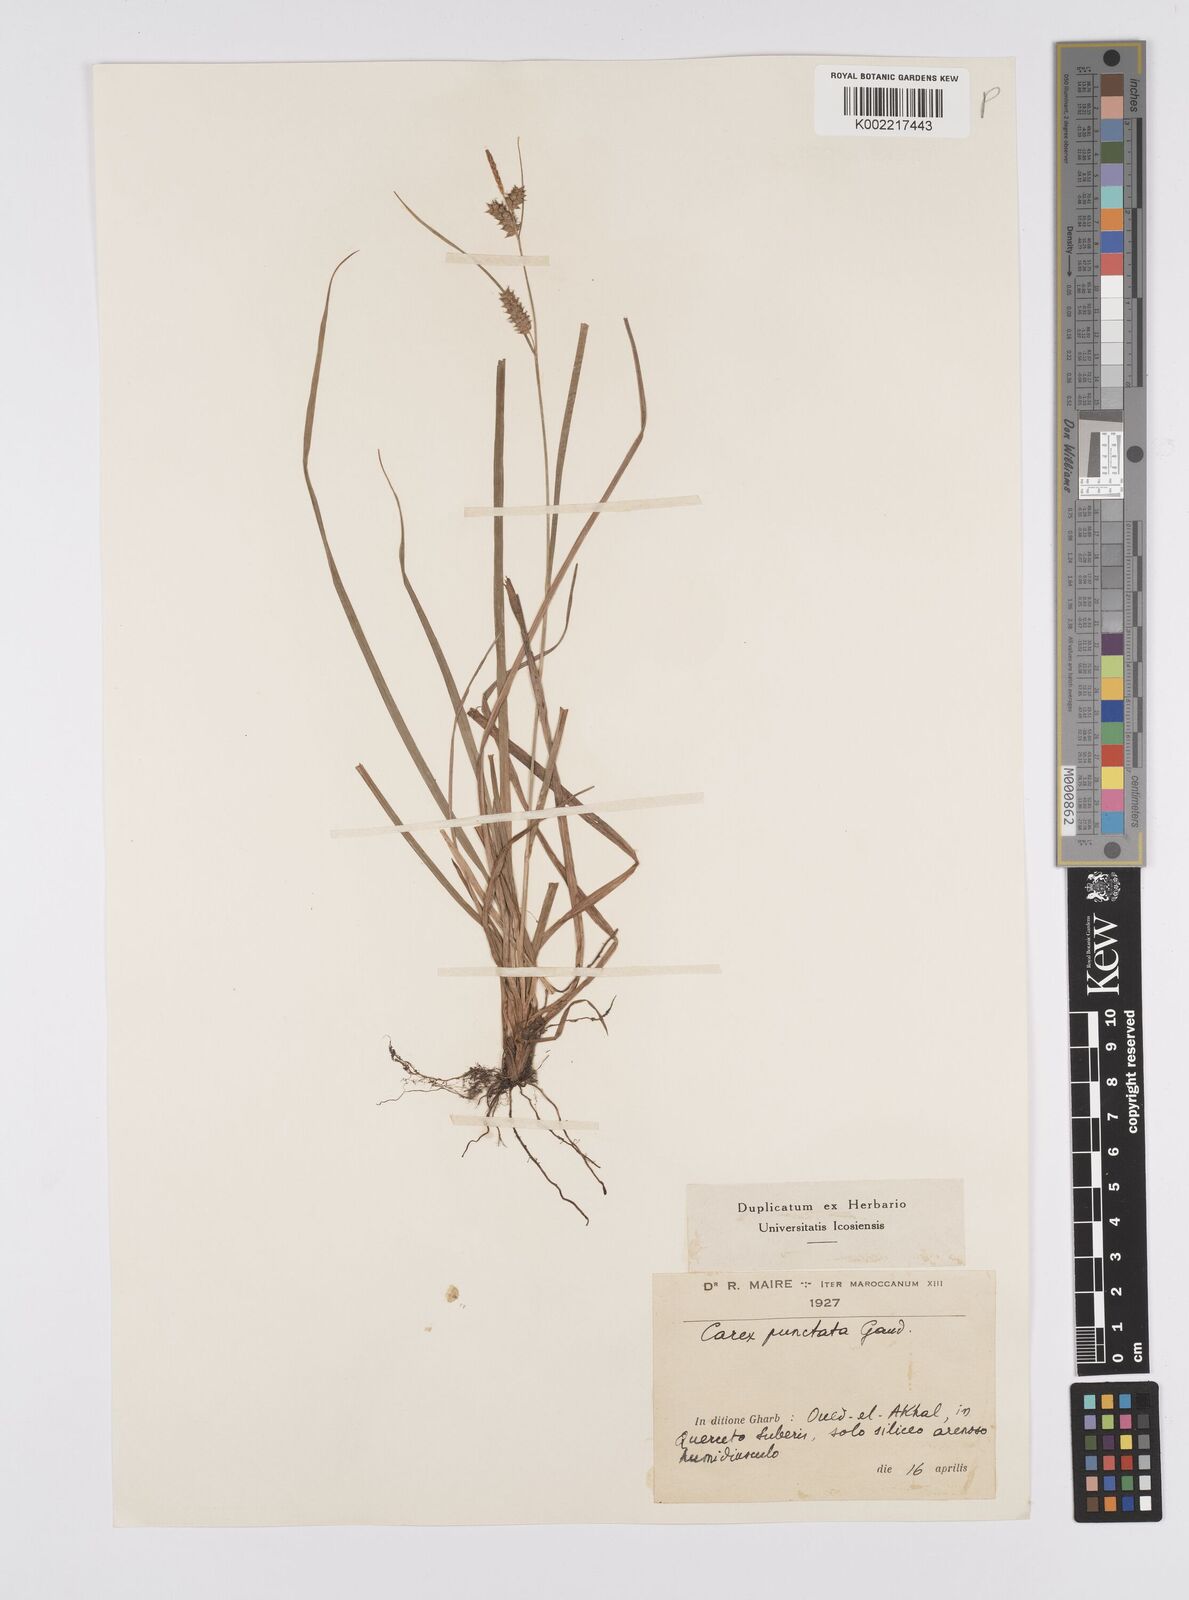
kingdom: Plantae
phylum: Tracheophyta
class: Liliopsida
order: Poales
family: Cyperaceae
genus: Carex
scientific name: Carex punctata
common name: Dotted sedge
